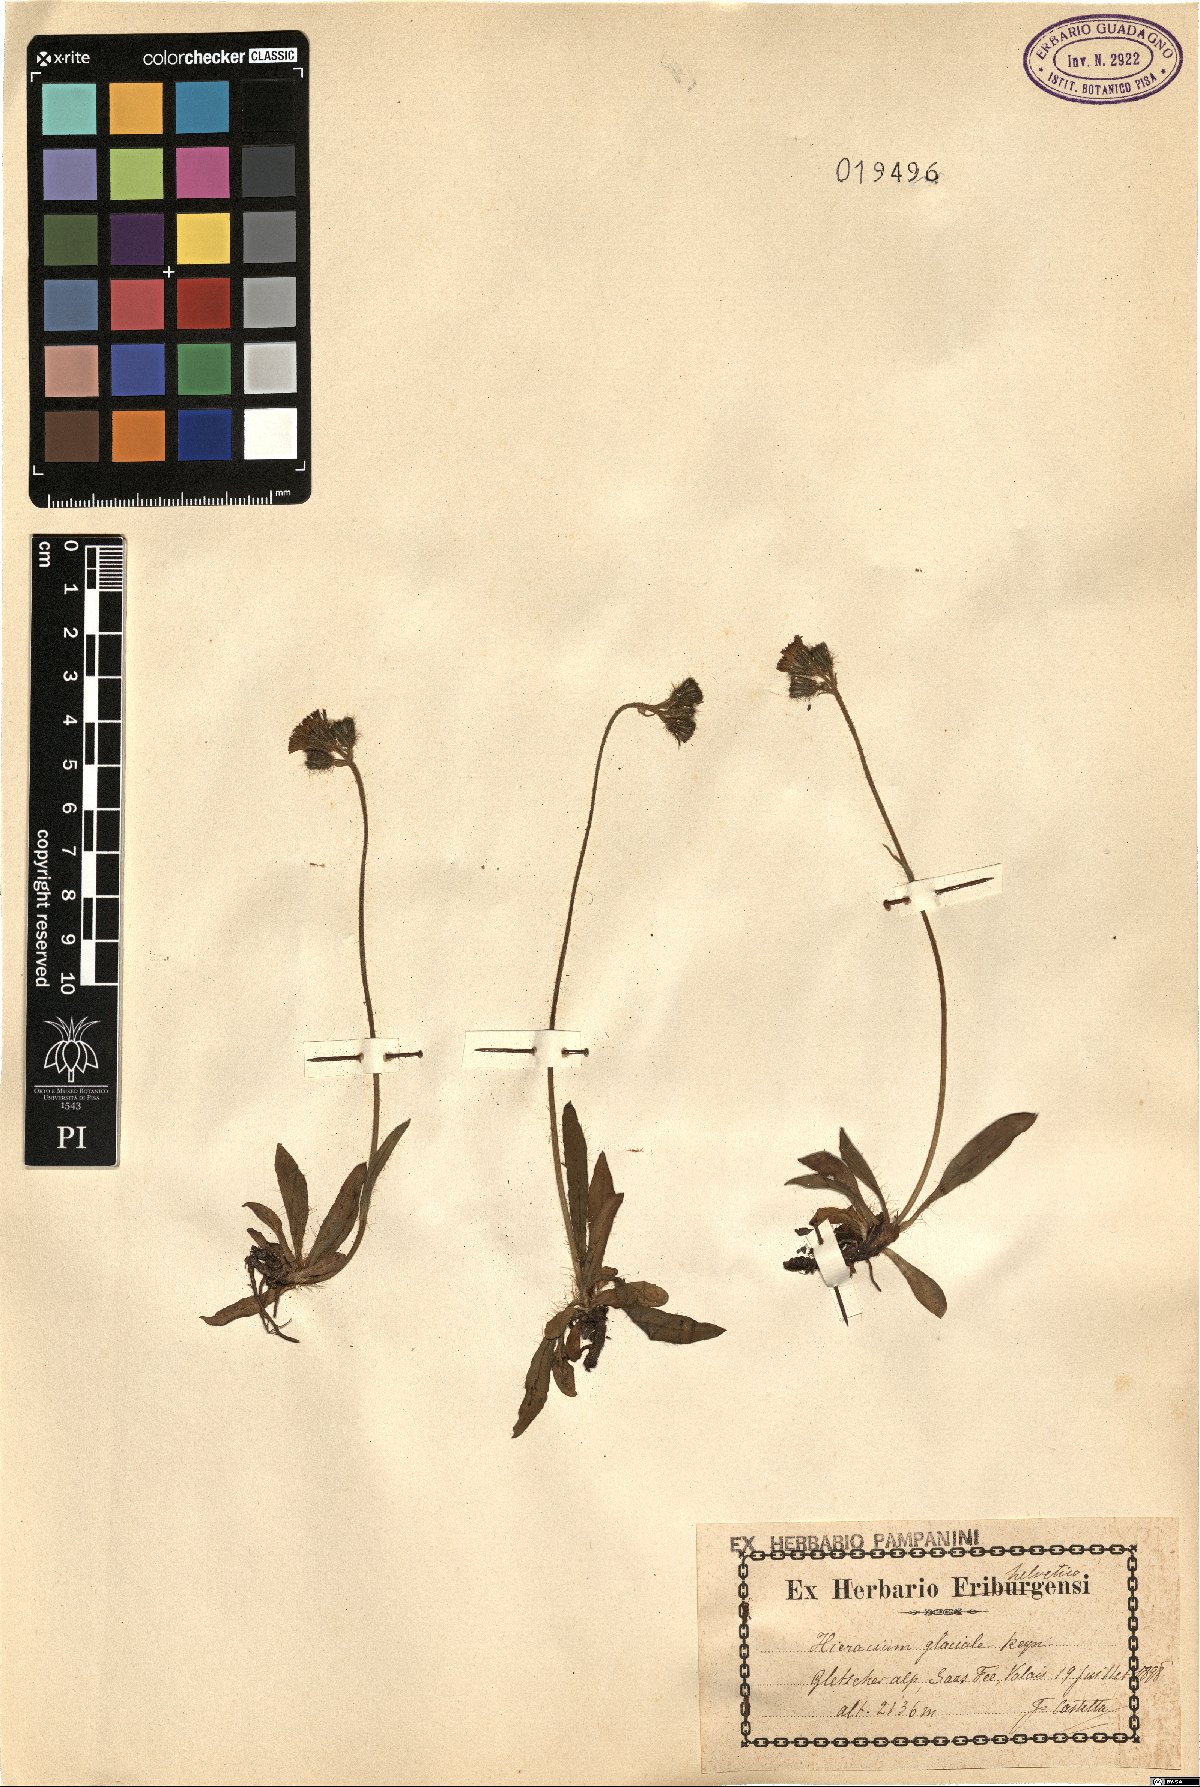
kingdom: Plantae
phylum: Tracheophyta
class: Magnoliopsida
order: Asterales
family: Asteraceae
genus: Pilosella
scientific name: Pilosella glacialis
